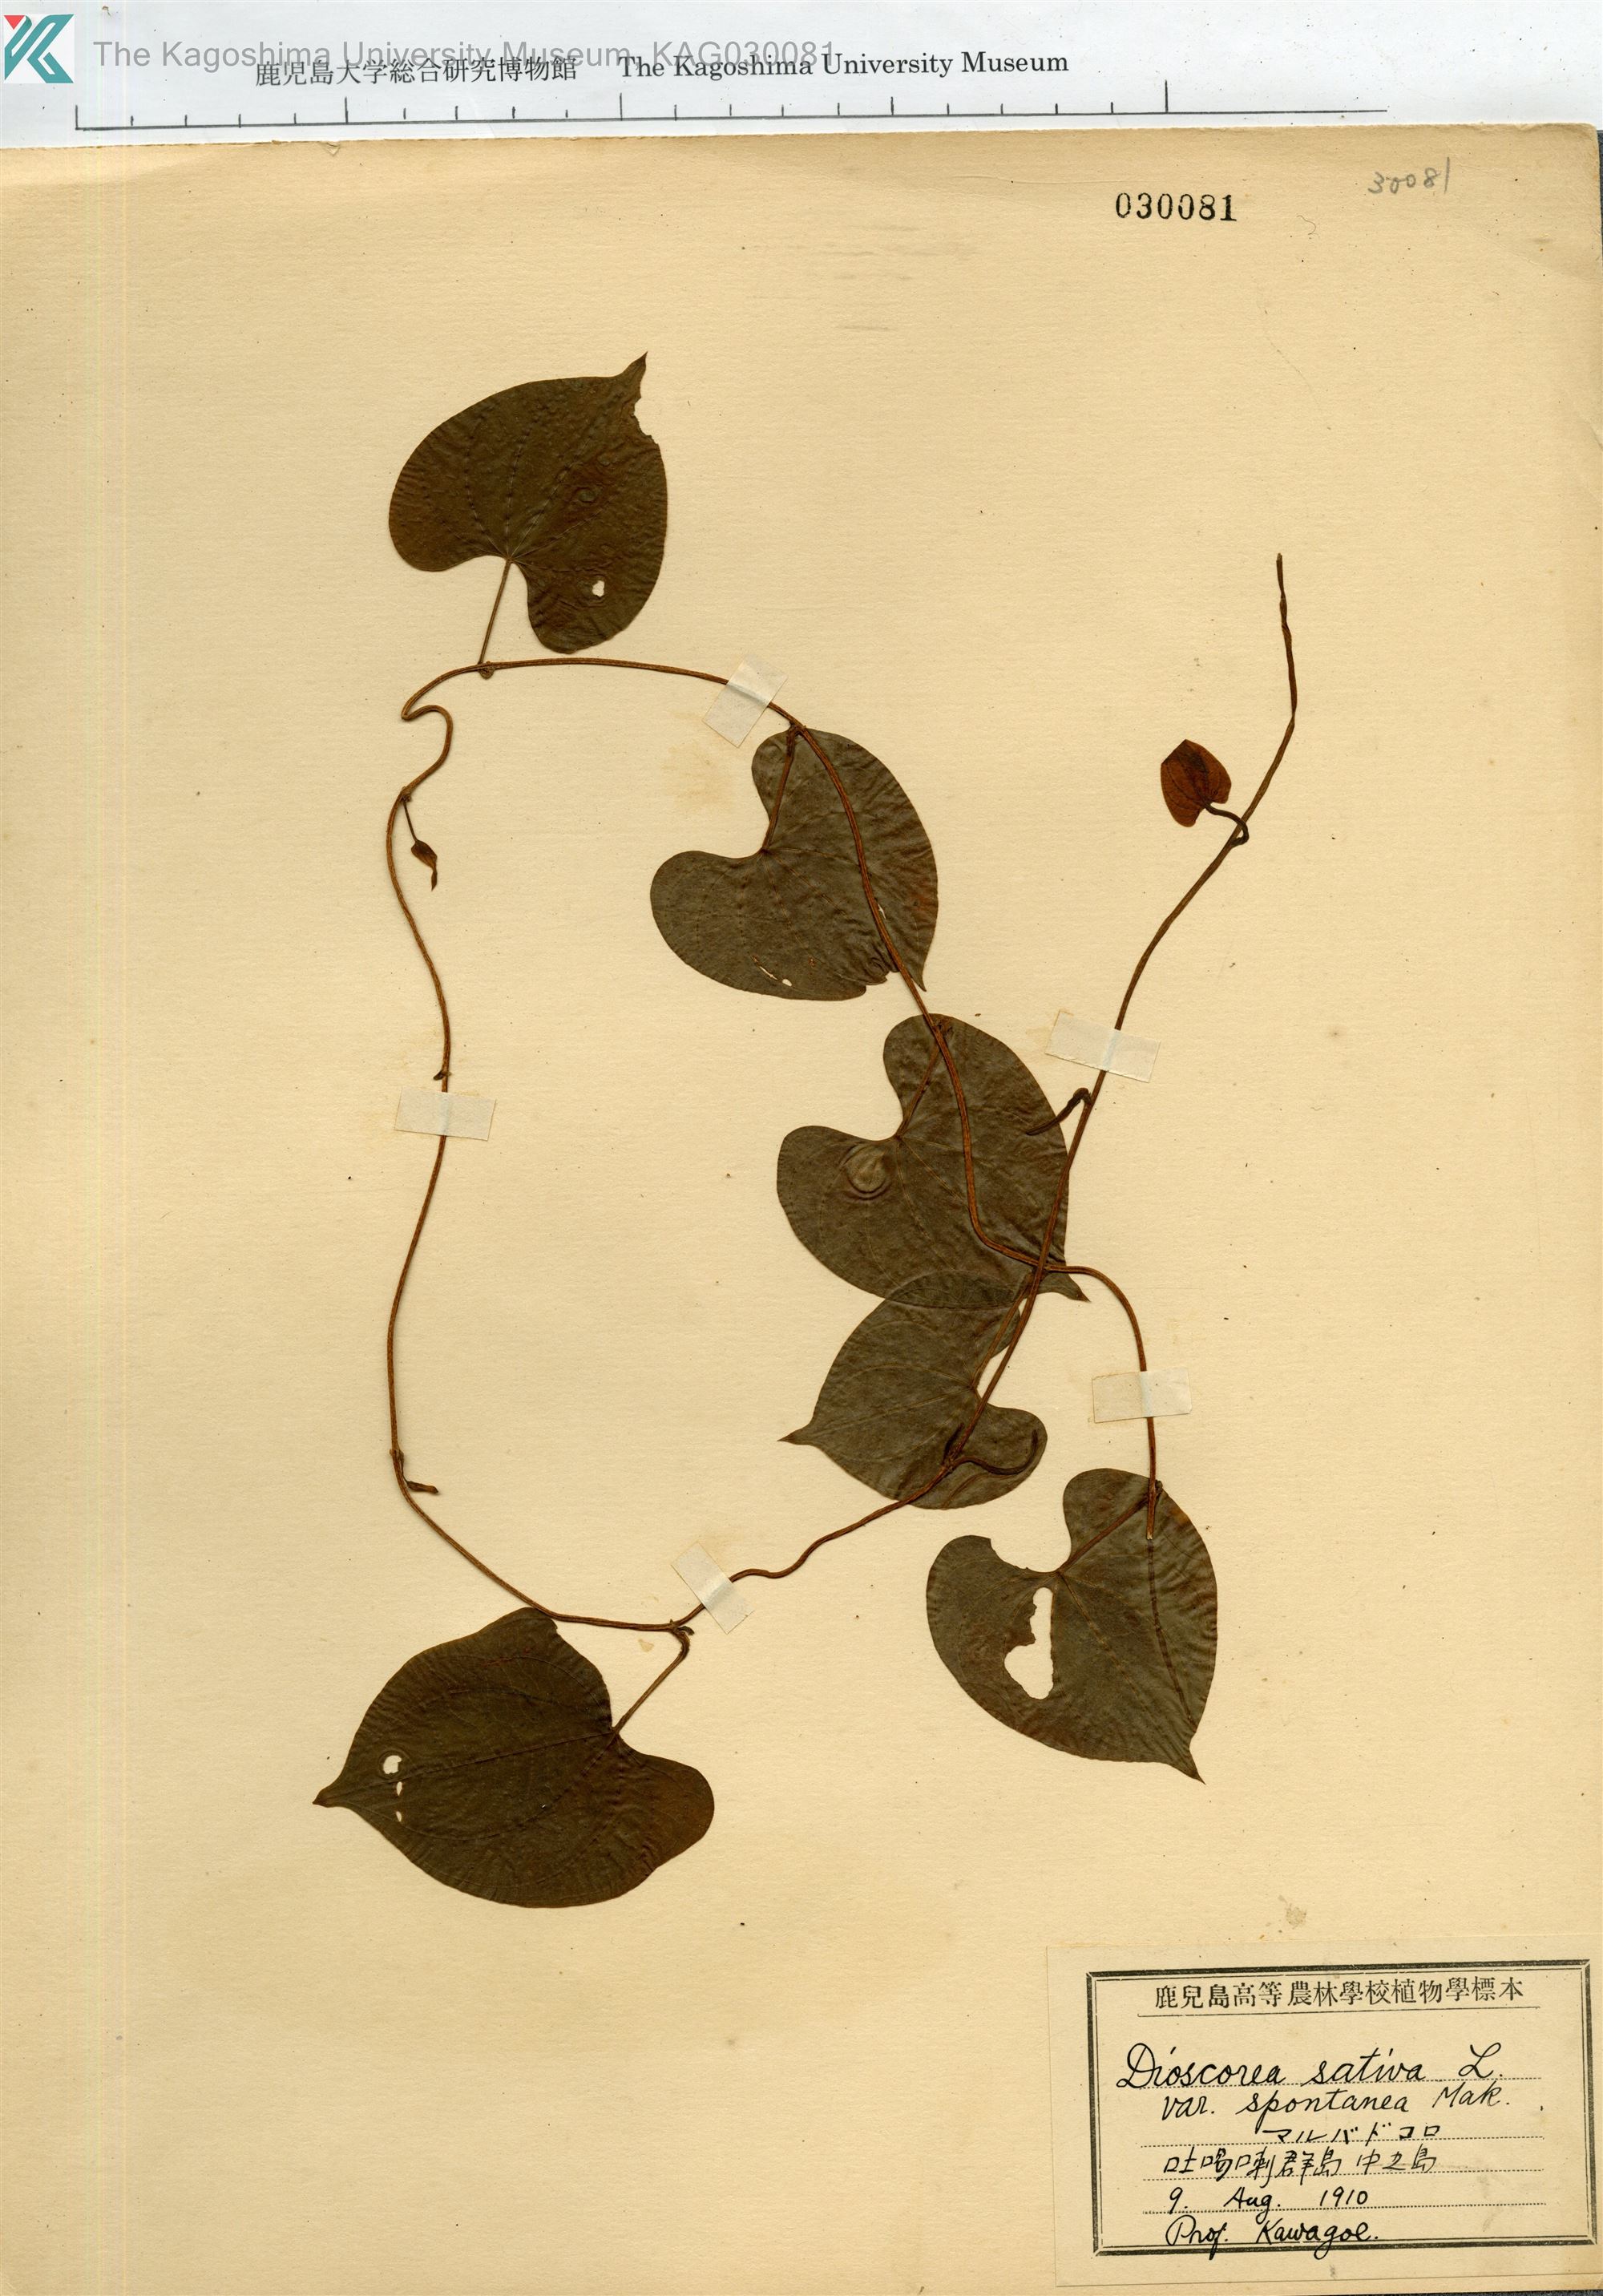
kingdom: Plantae
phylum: Tracheophyta
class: Liliopsida
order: Dioscoreales
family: Dioscoreaceae
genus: Dioscorea
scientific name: Dioscorea bulbifera
